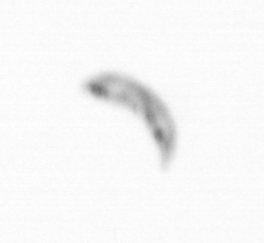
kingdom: Chromista
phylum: Ochrophyta
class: Bacillariophyceae
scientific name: Bacillariophyceae
